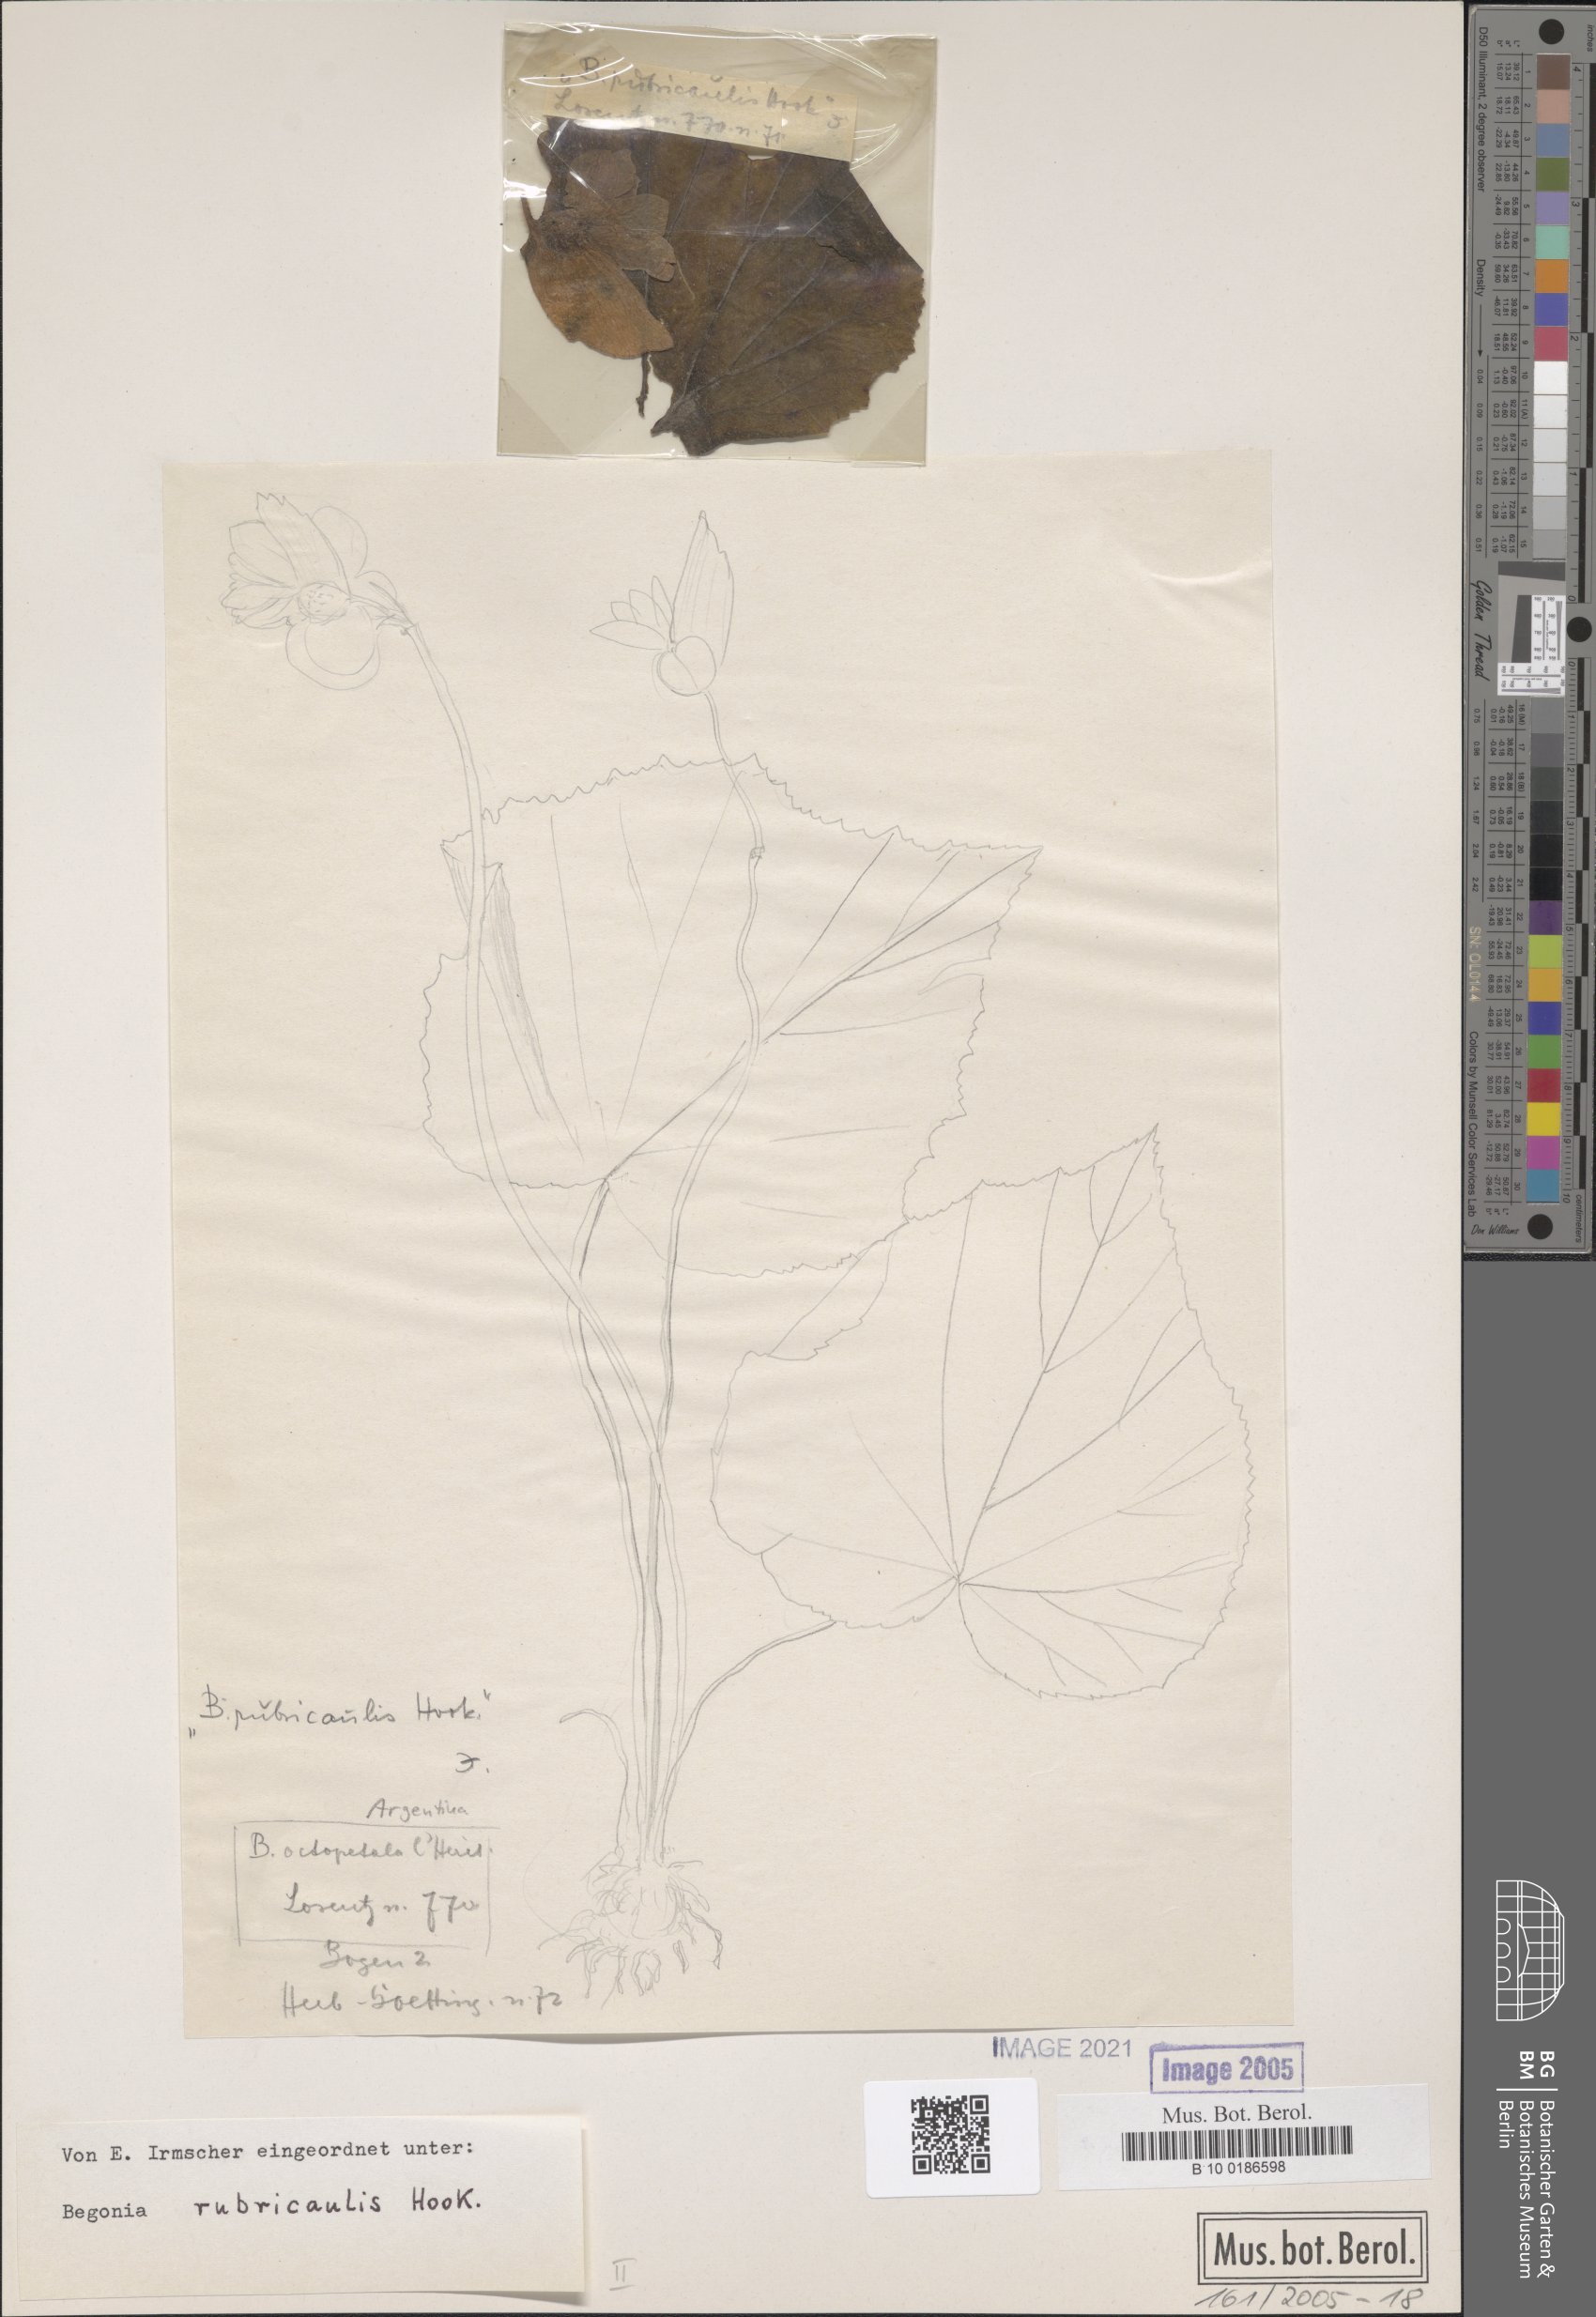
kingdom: Plantae
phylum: Tracheophyta
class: Magnoliopsida
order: Cucurbitales
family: Begoniaceae
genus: Begonia
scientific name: Begonia rubricaulis
